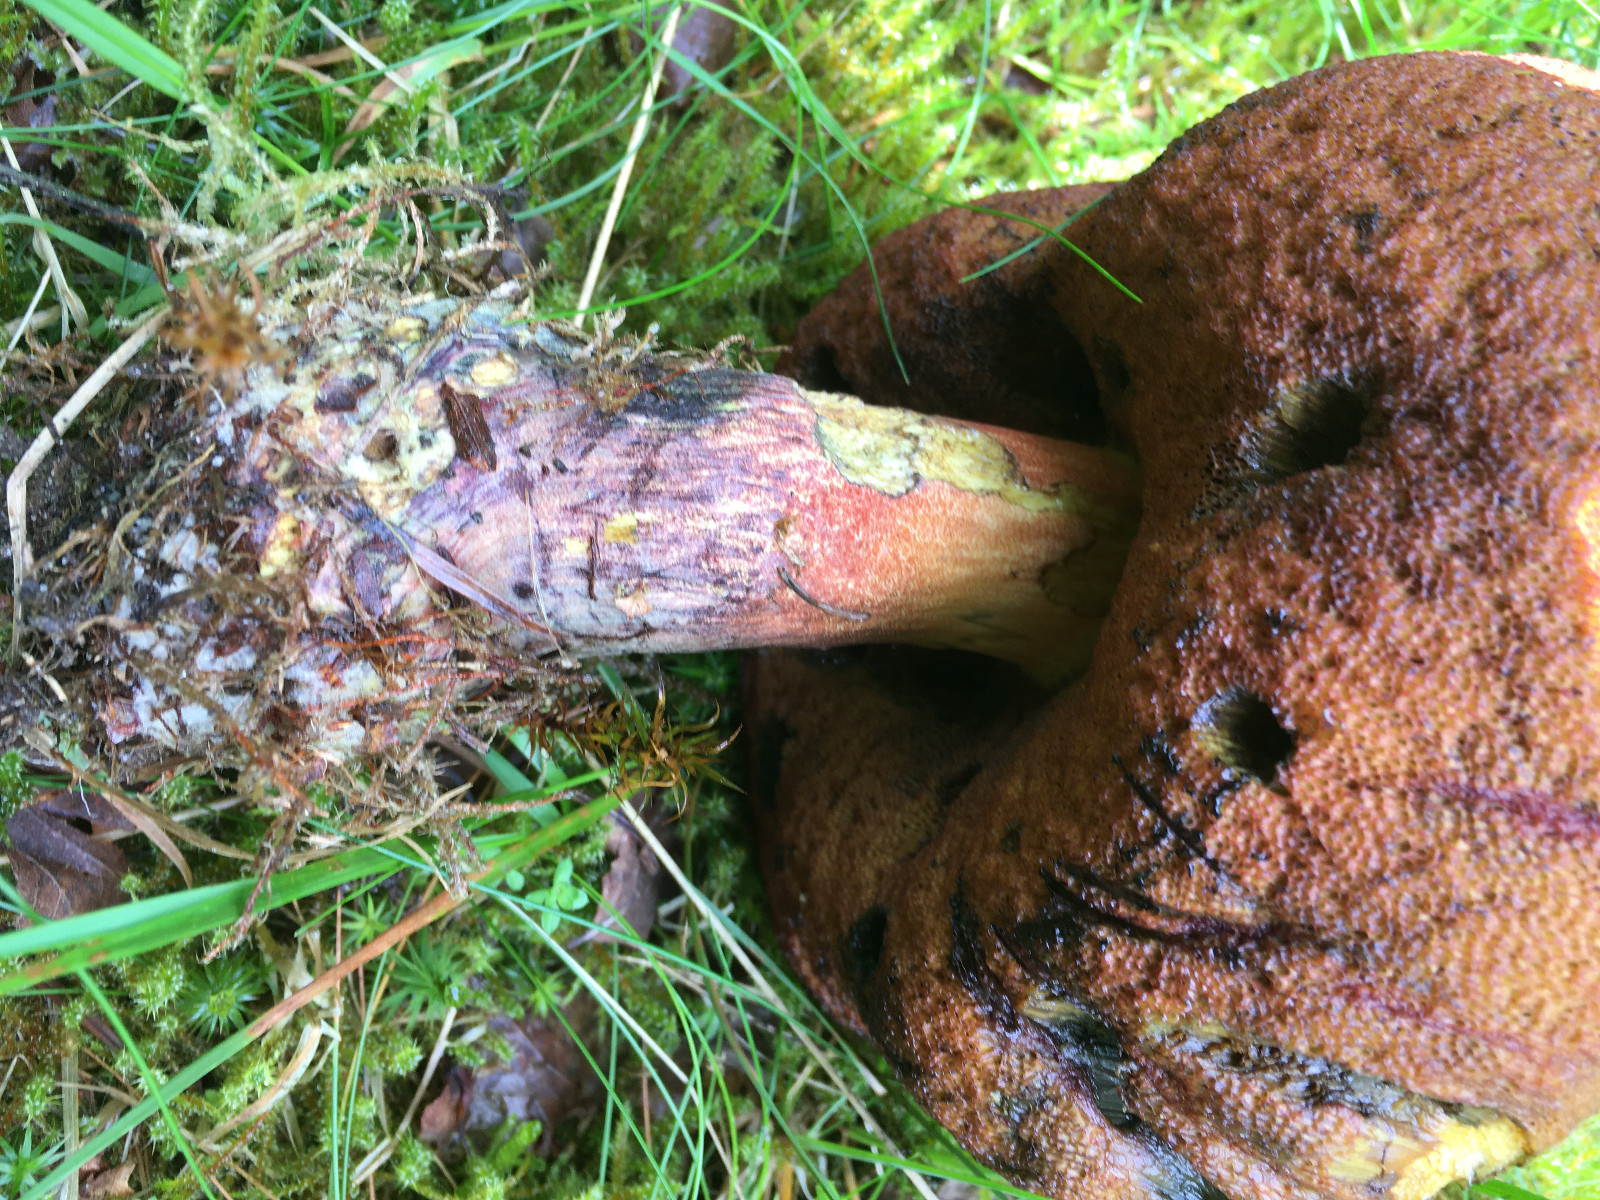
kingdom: Fungi
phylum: Basidiomycota
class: Agaricomycetes
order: Boletales
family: Boletaceae
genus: Neoboletus
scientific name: Neoboletus erythropus
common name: punktstokket indigorørhat
